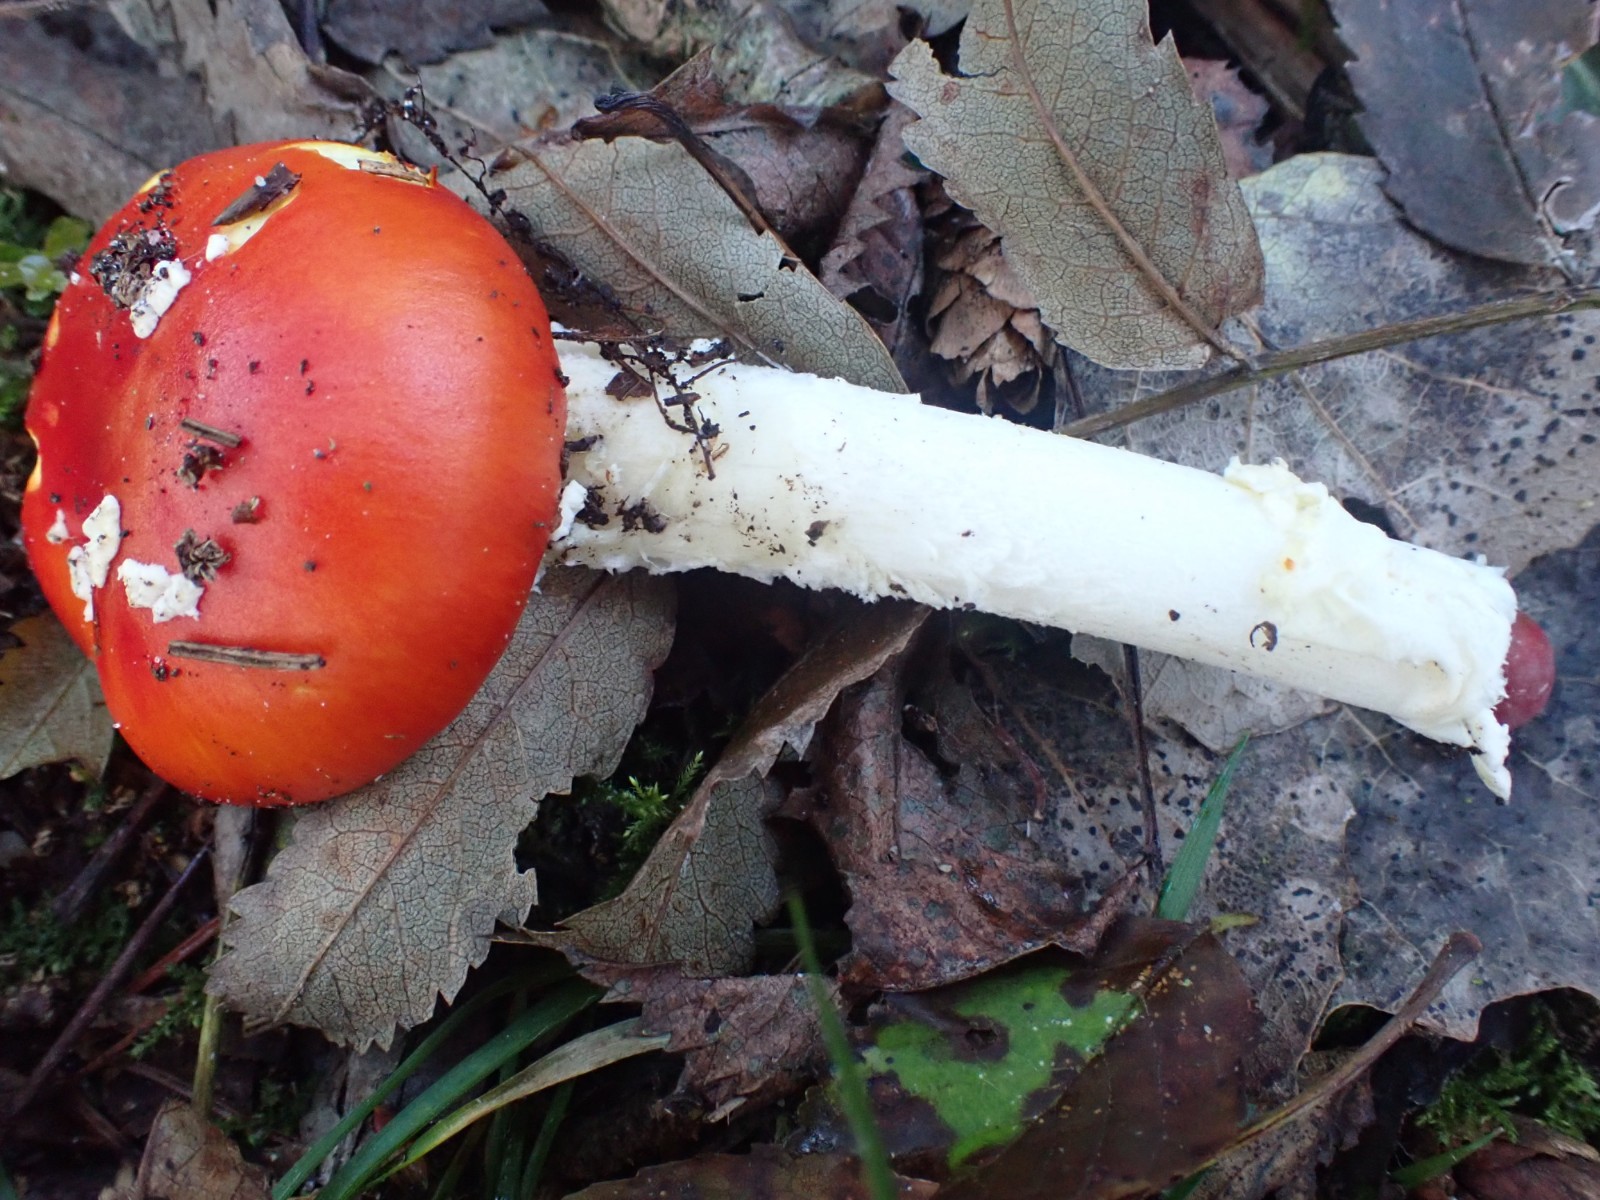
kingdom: Fungi
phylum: Basidiomycota
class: Agaricomycetes
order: Agaricales
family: Amanitaceae
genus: Amanita
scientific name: Amanita muscaria
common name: rød fluesvamp
